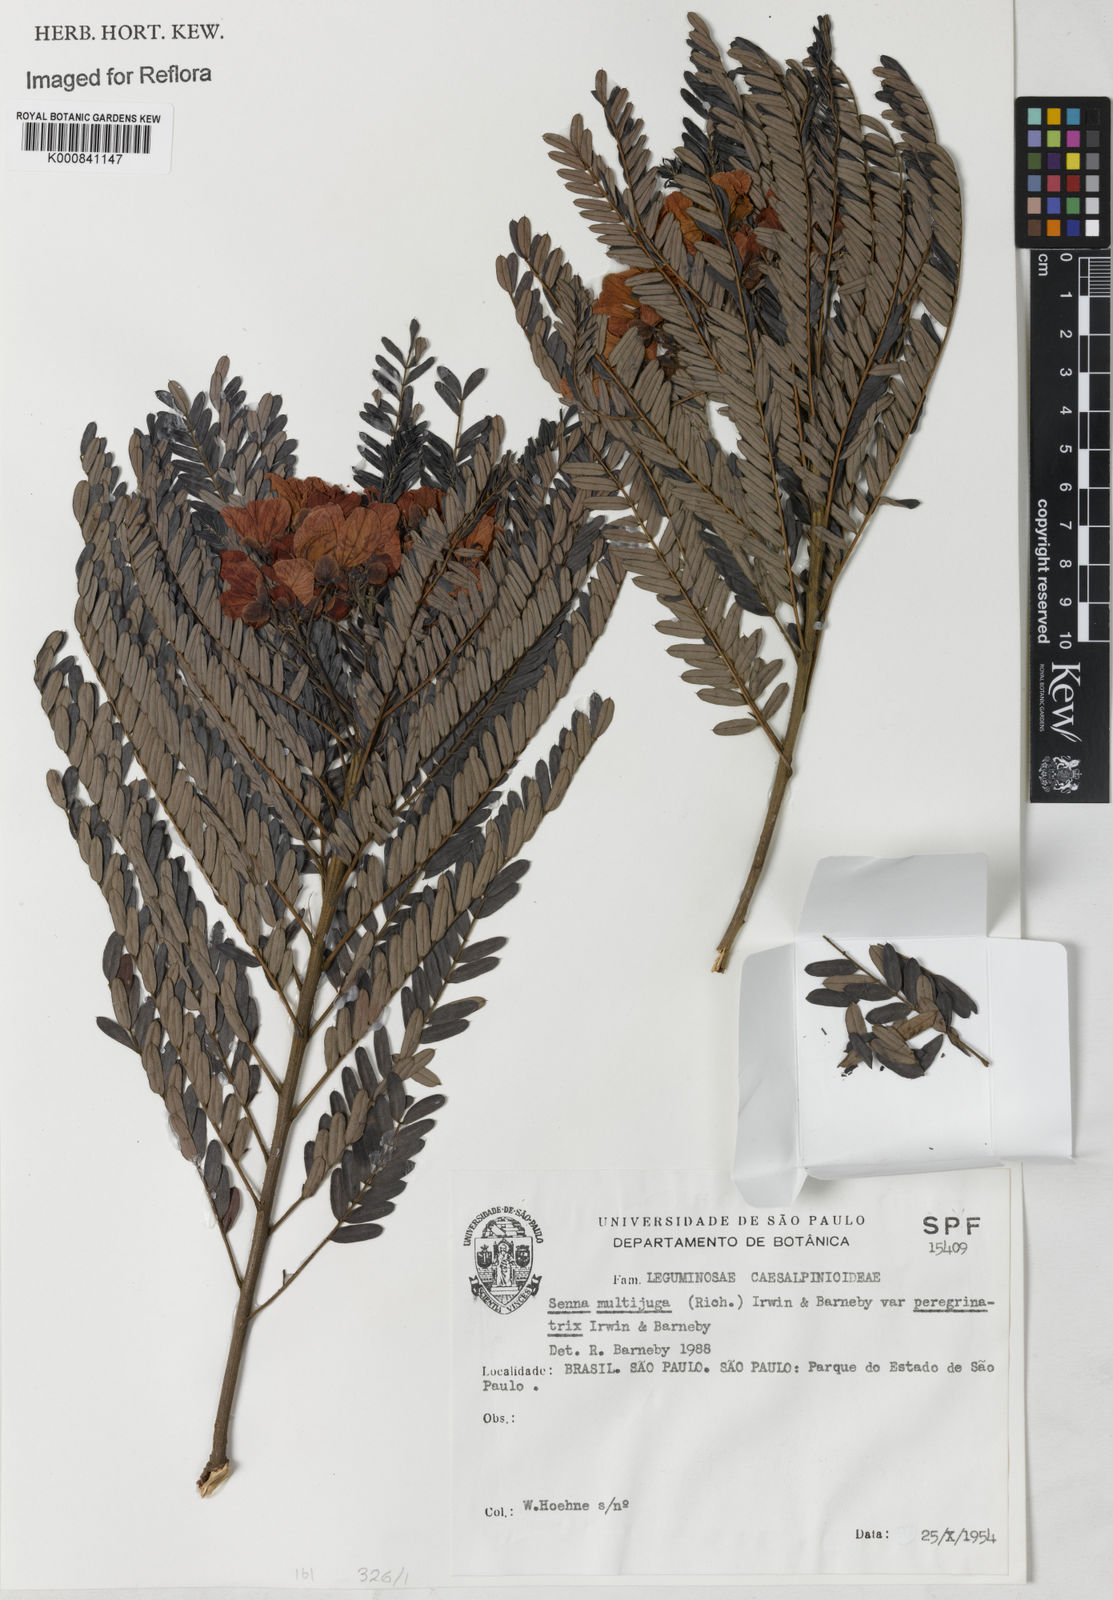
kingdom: Plantae
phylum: Tracheophyta
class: Magnoliopsida
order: Fabales
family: Fabaceae
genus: Senna
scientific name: Senna multijuga
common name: False sicklepod
